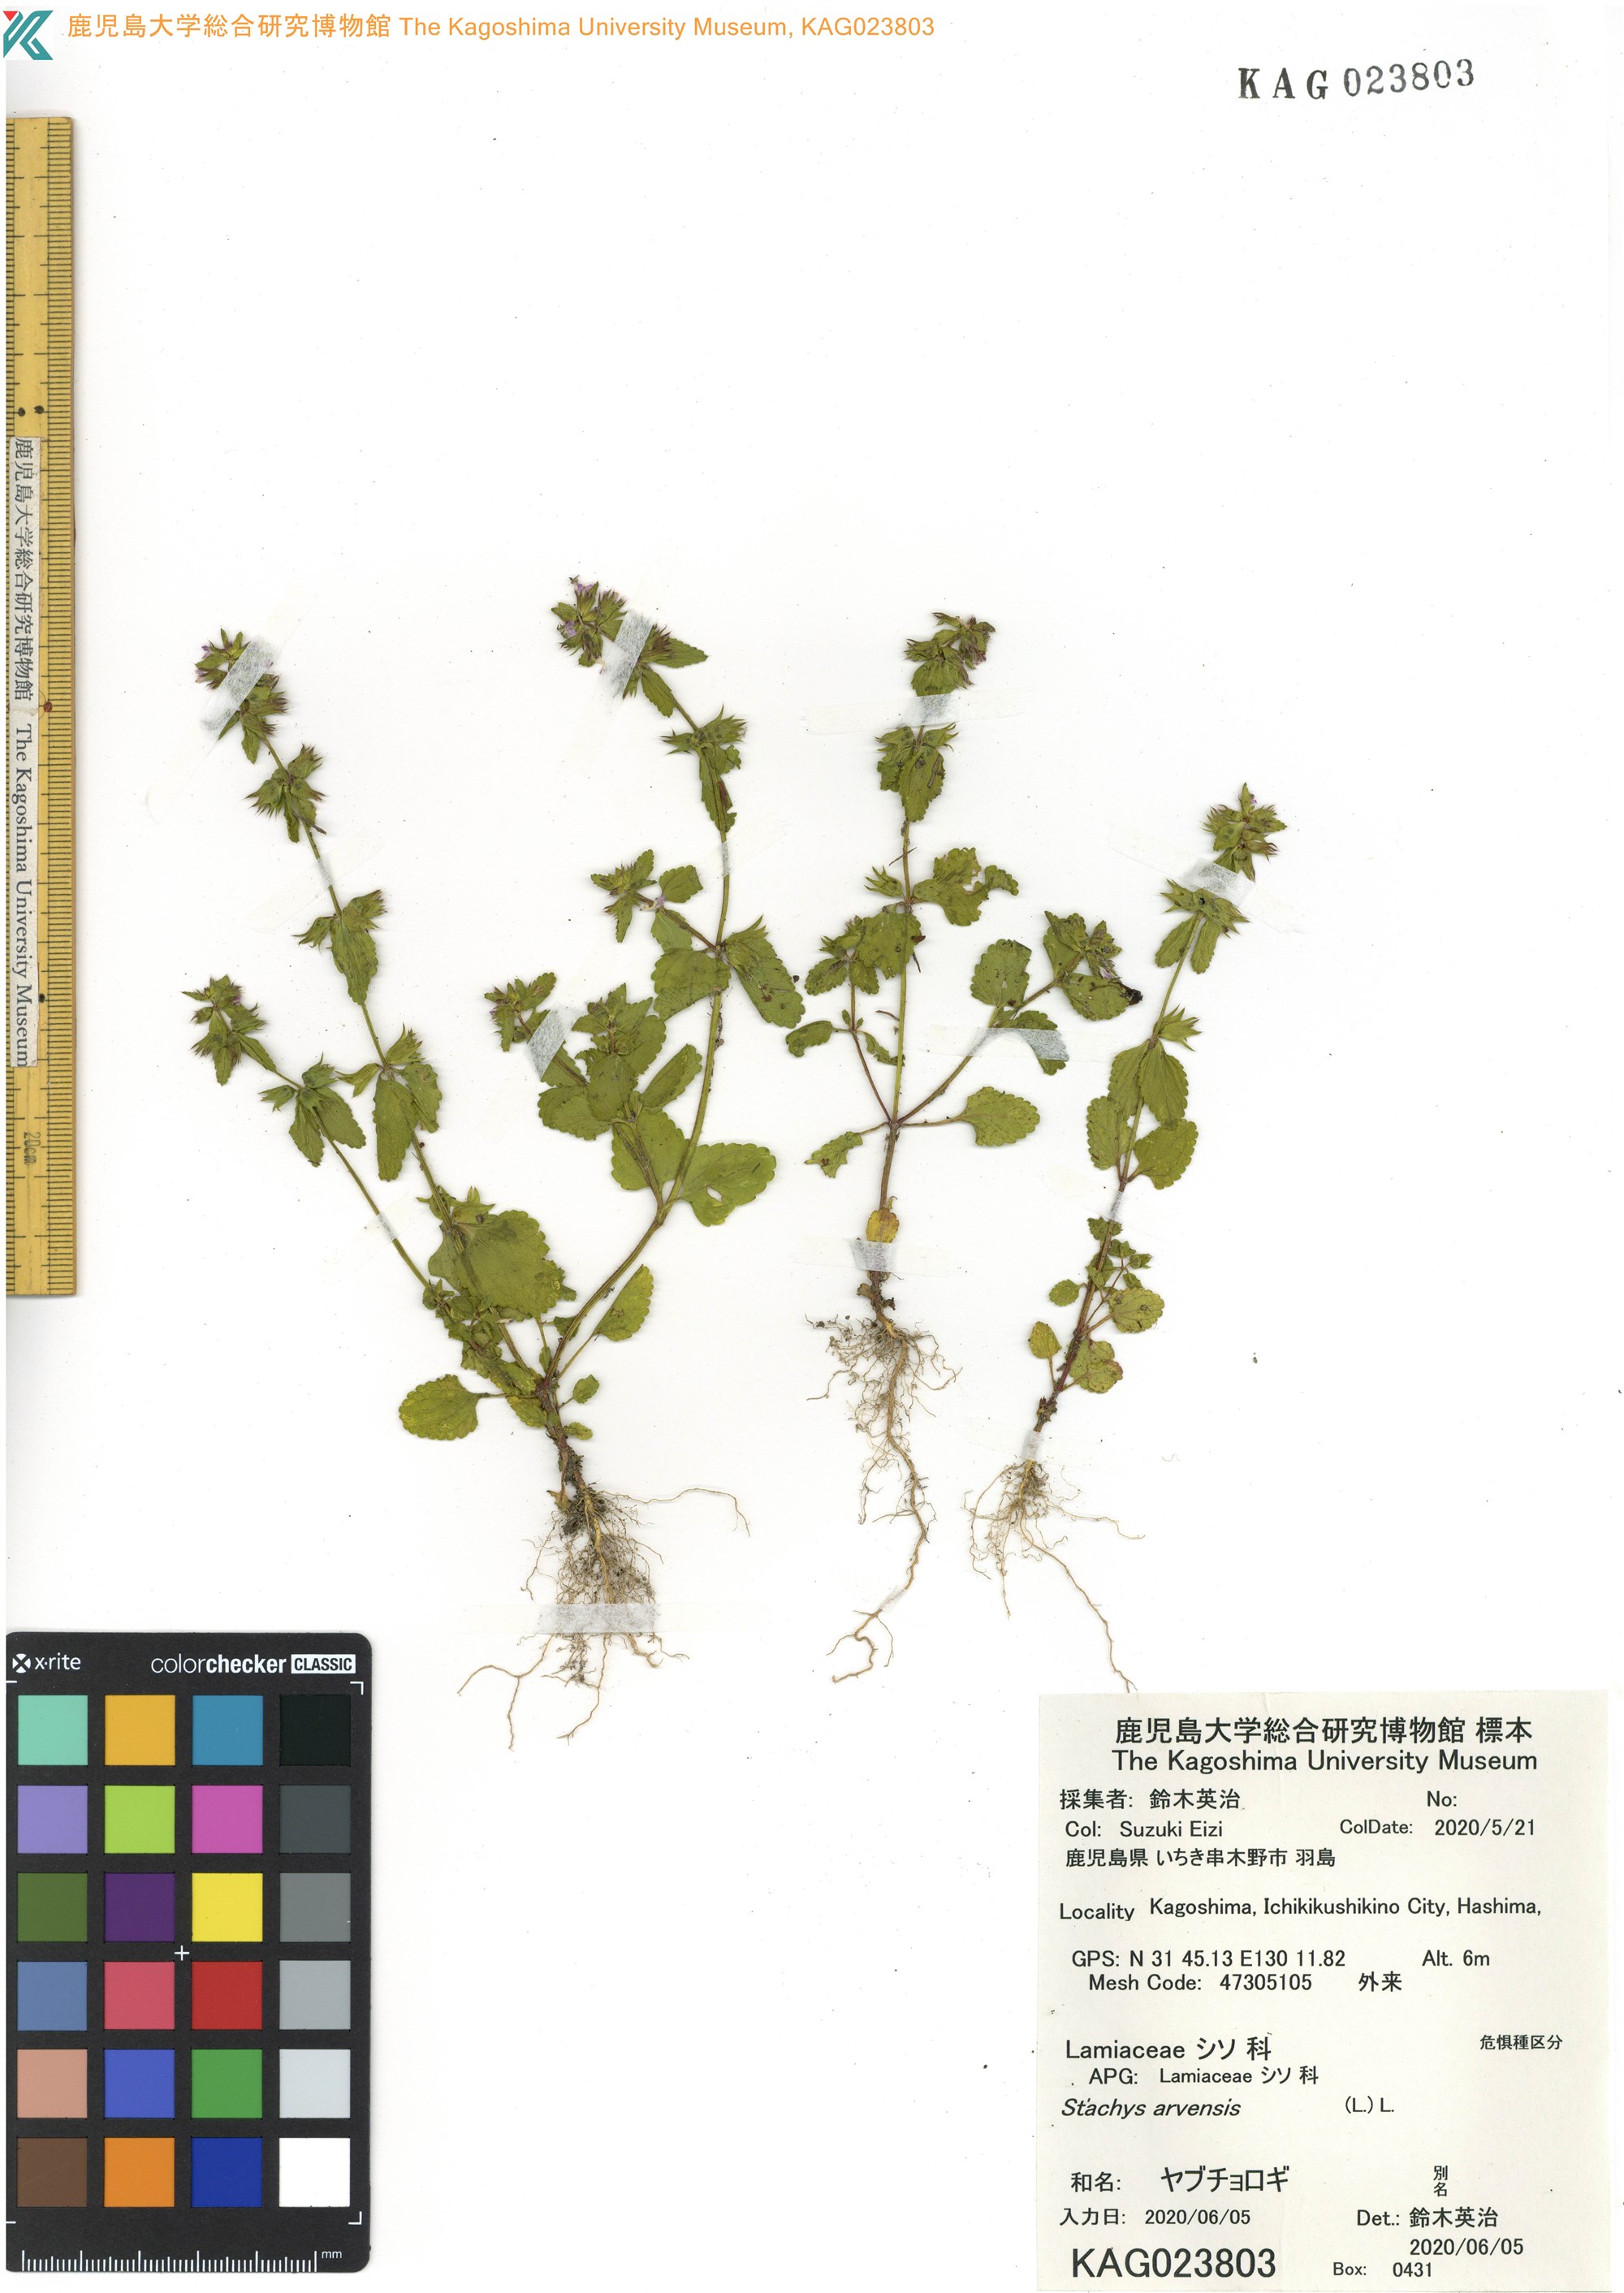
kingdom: Plantae
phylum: Tracheophyta
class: Magnoliopsida
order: Lamiales
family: Lamiaceae
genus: Stachys
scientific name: Stachys arvensis
